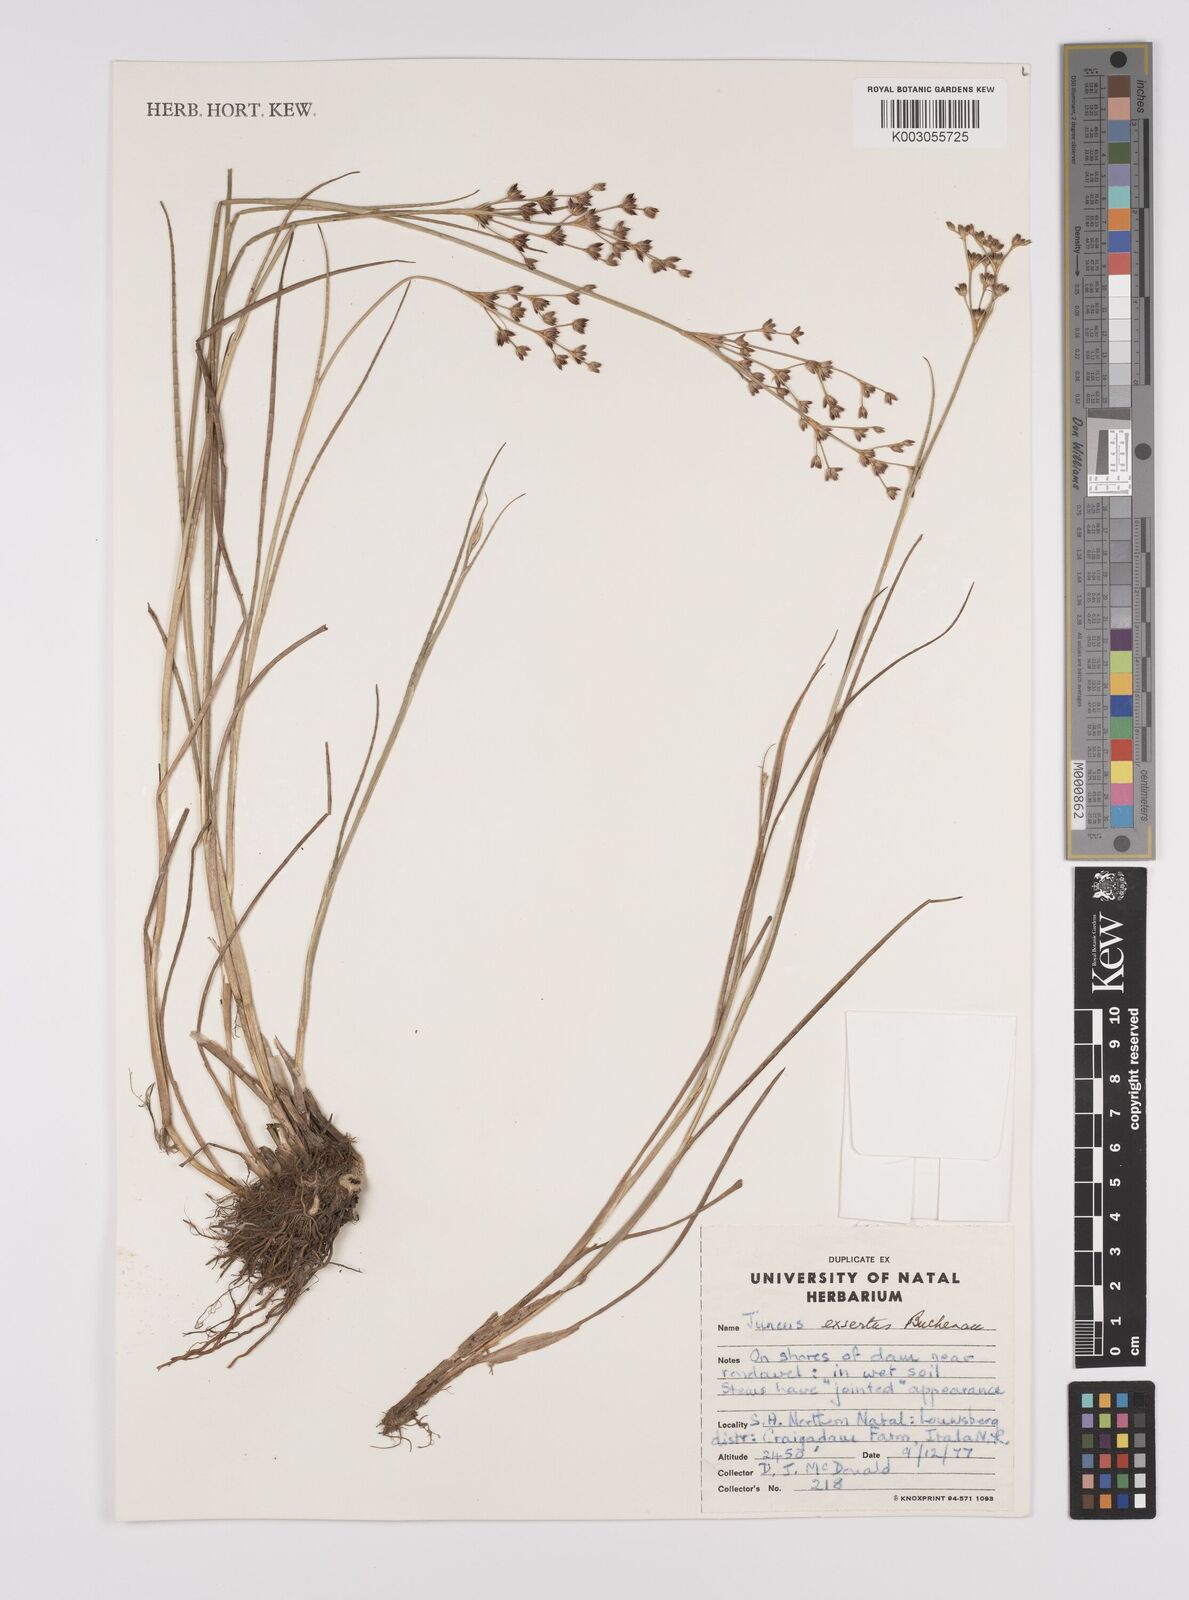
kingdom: Plantae
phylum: Tracheophyta
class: Liliopsida
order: Poales
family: Juncaceae
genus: Juncus
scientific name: Juncus exsertus
